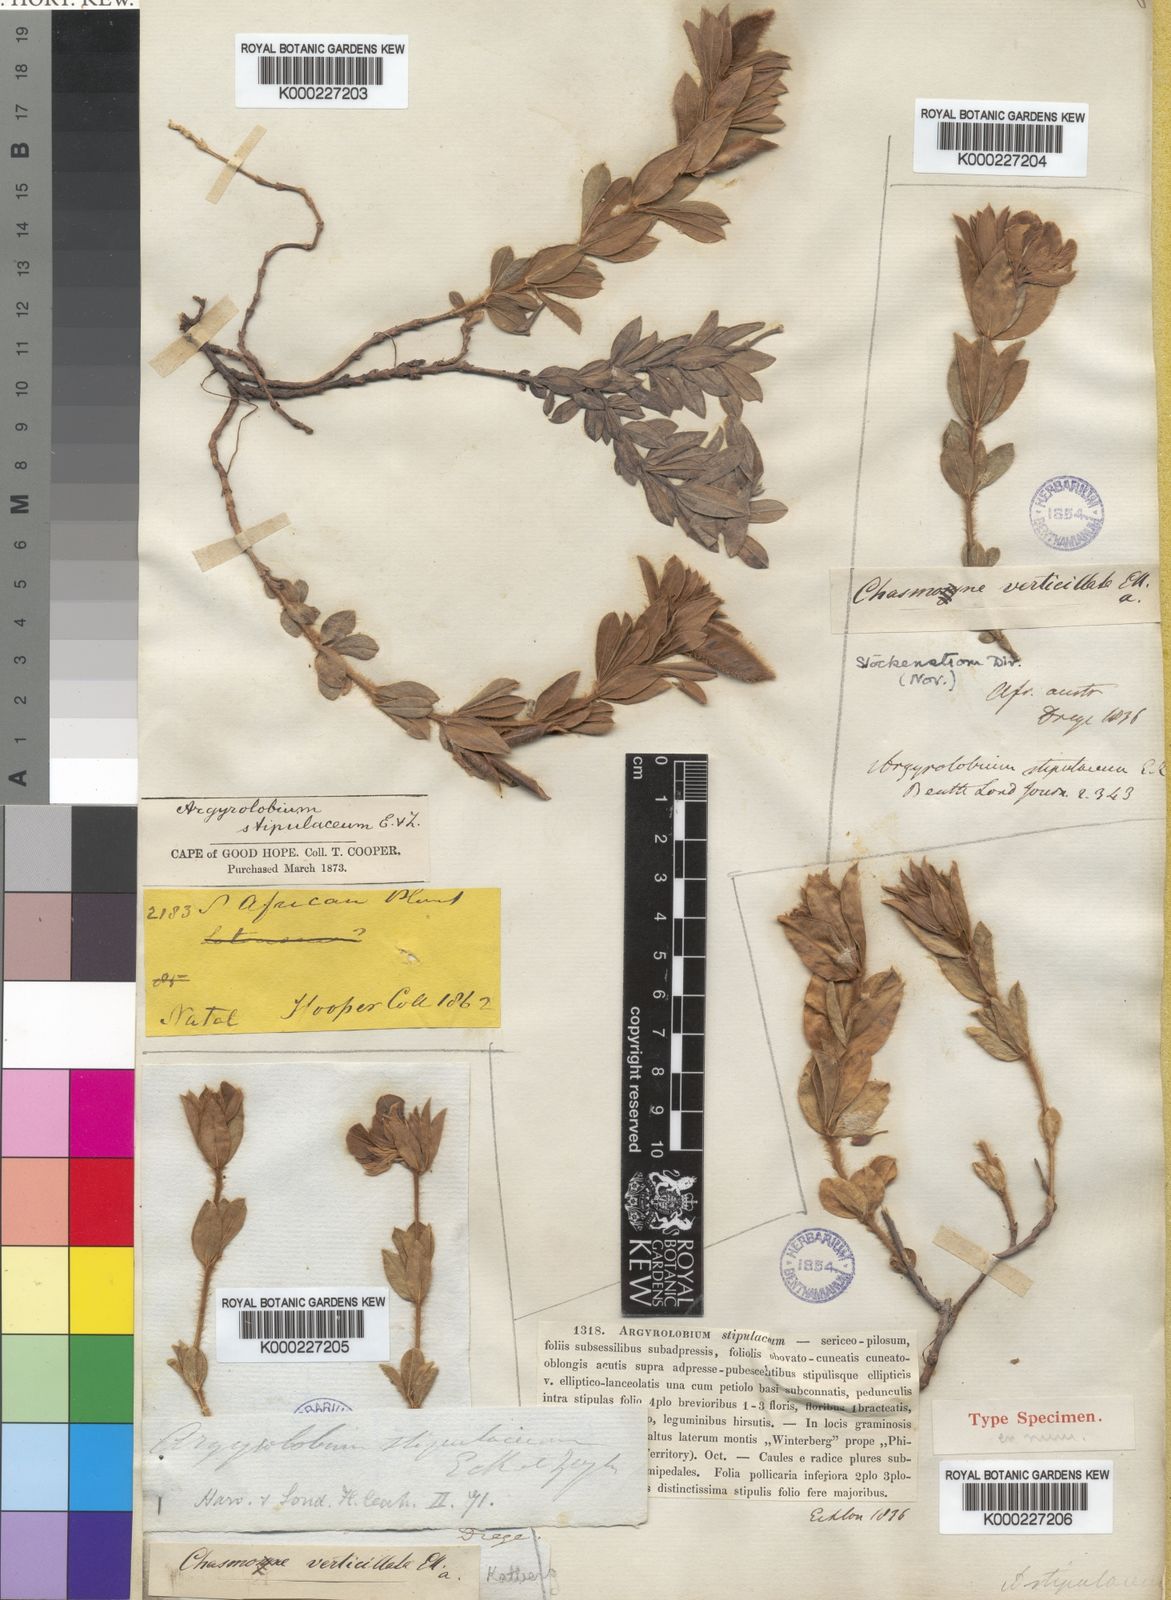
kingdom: Plantae
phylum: Tracheophyta
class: Magnoliopsida
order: Fabales
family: Fabaceae
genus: Polhillia
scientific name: Polhillia obsoleta
